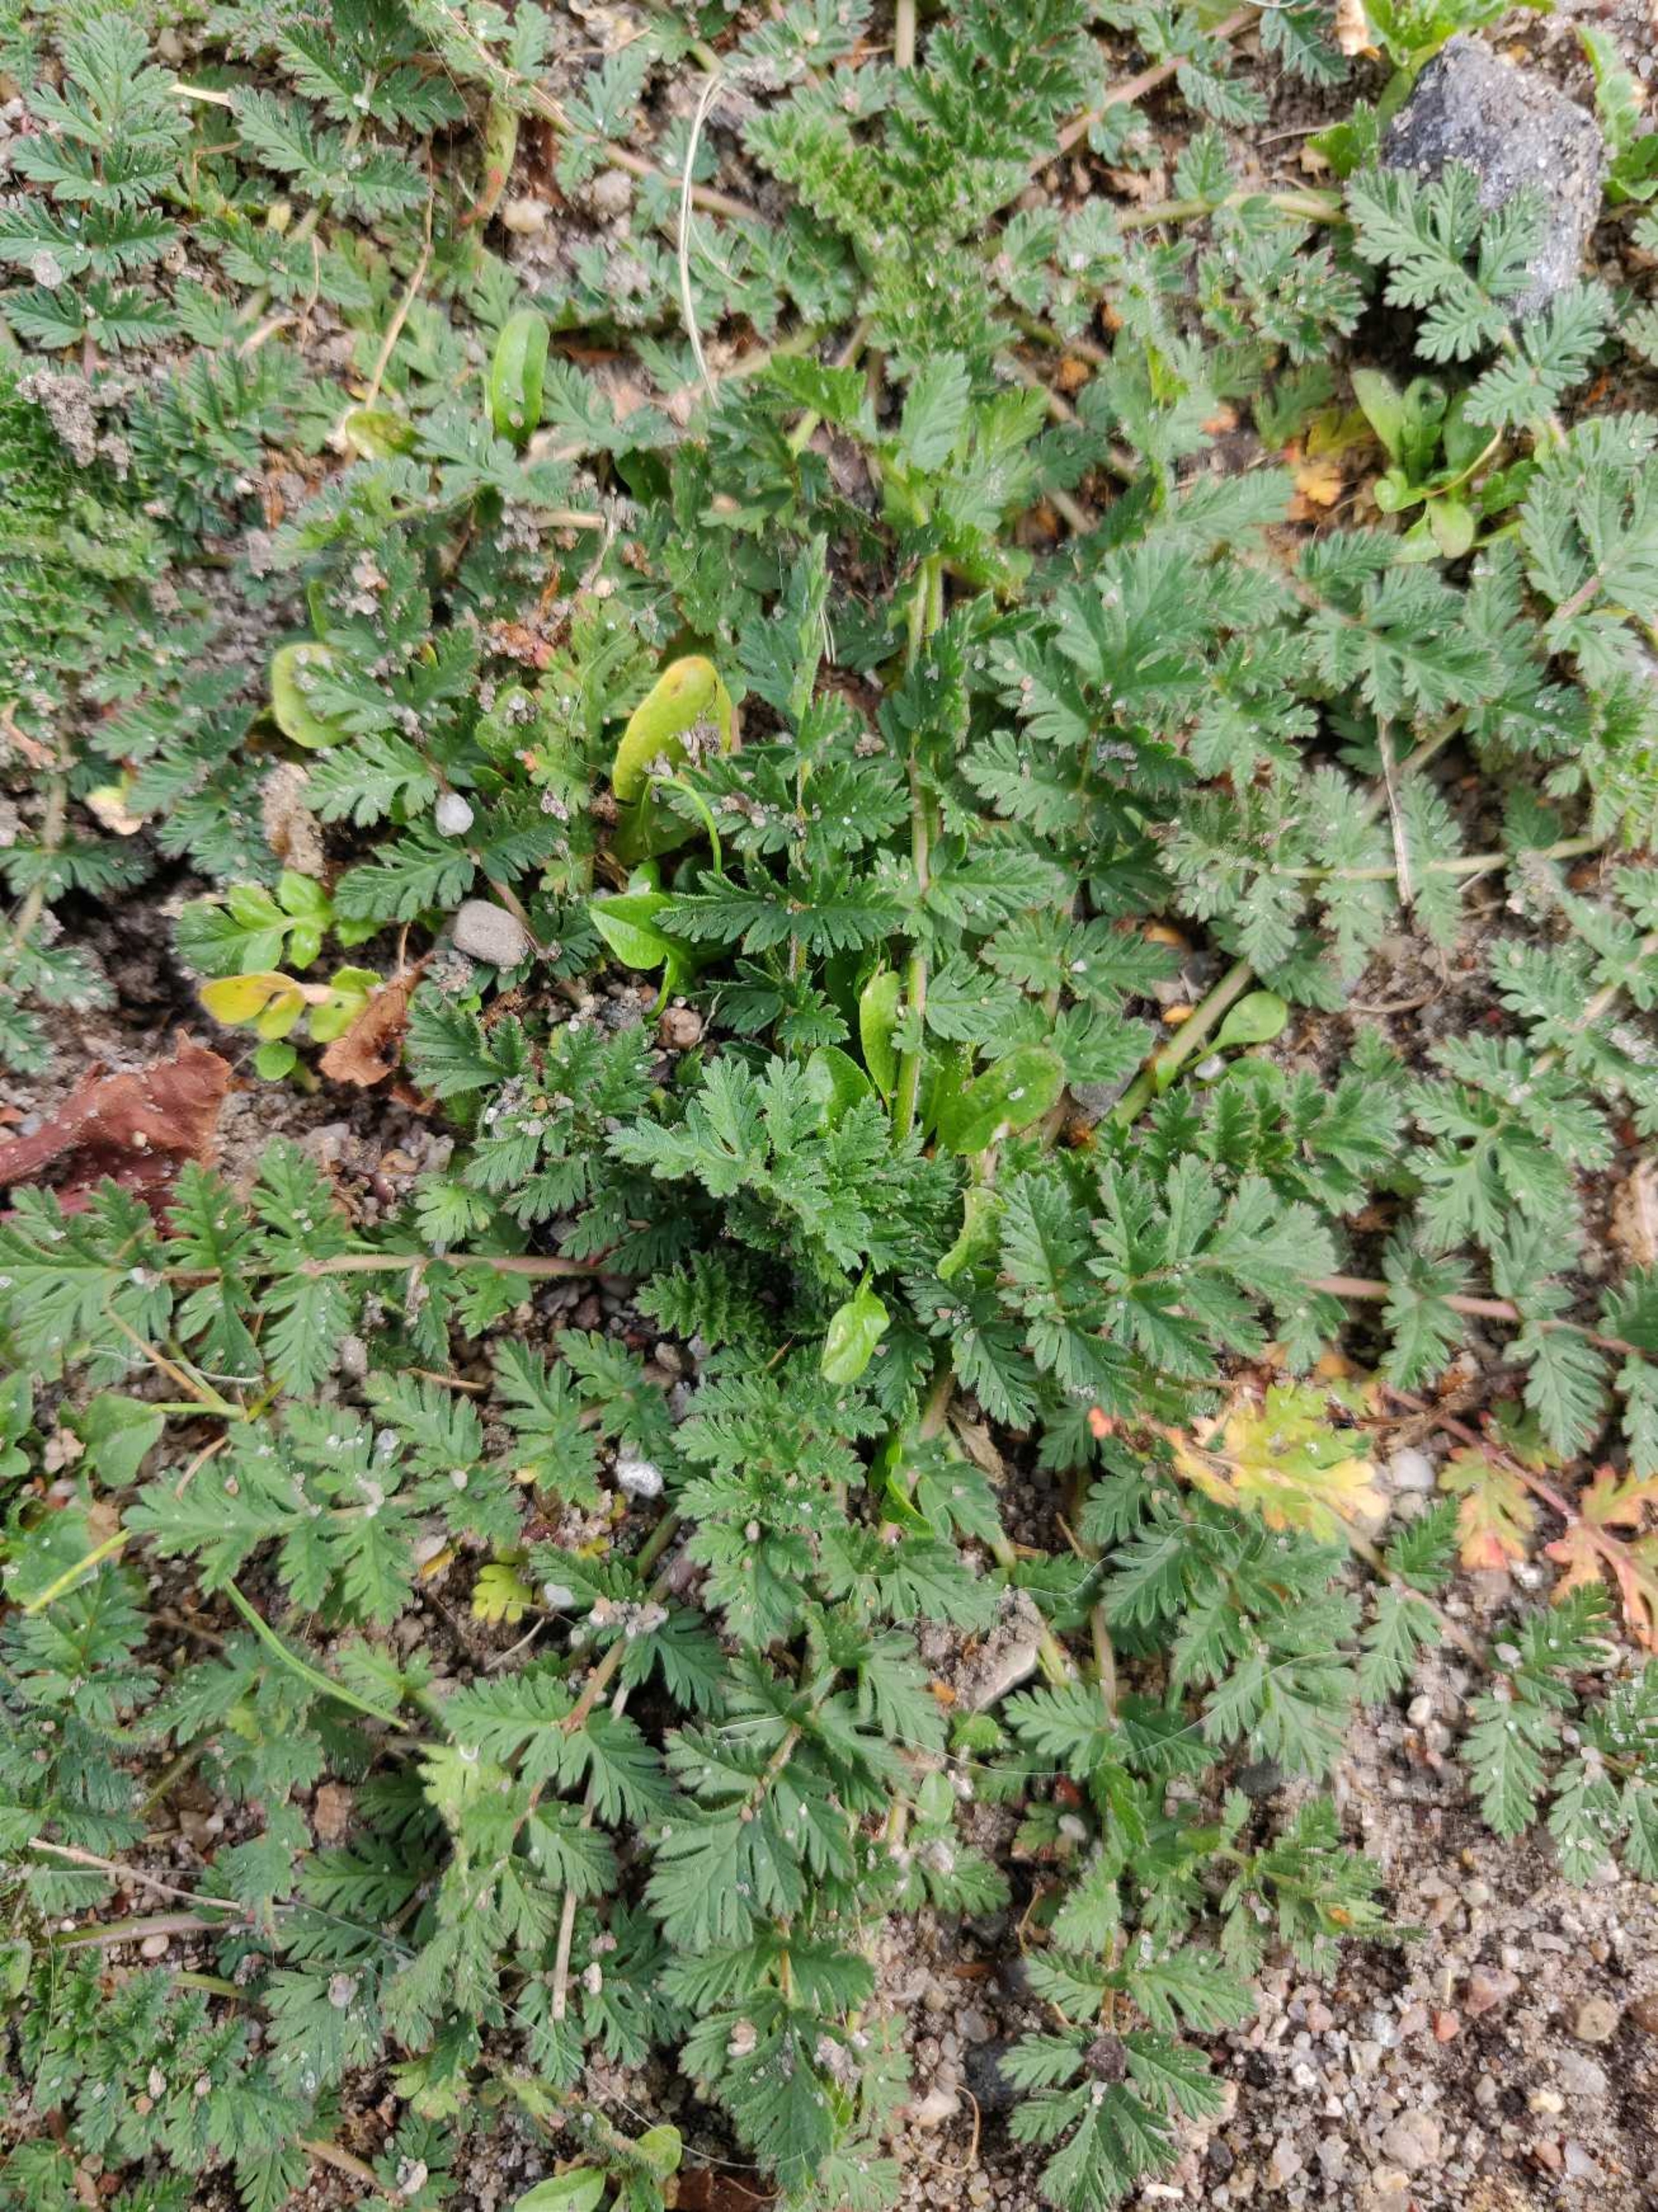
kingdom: Plantae
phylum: Tracheophyta
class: Magnoliopsida
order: Geraniales
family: Geraniaceae
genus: Erodium
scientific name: Erodium cicutarium
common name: Hejrenæb
